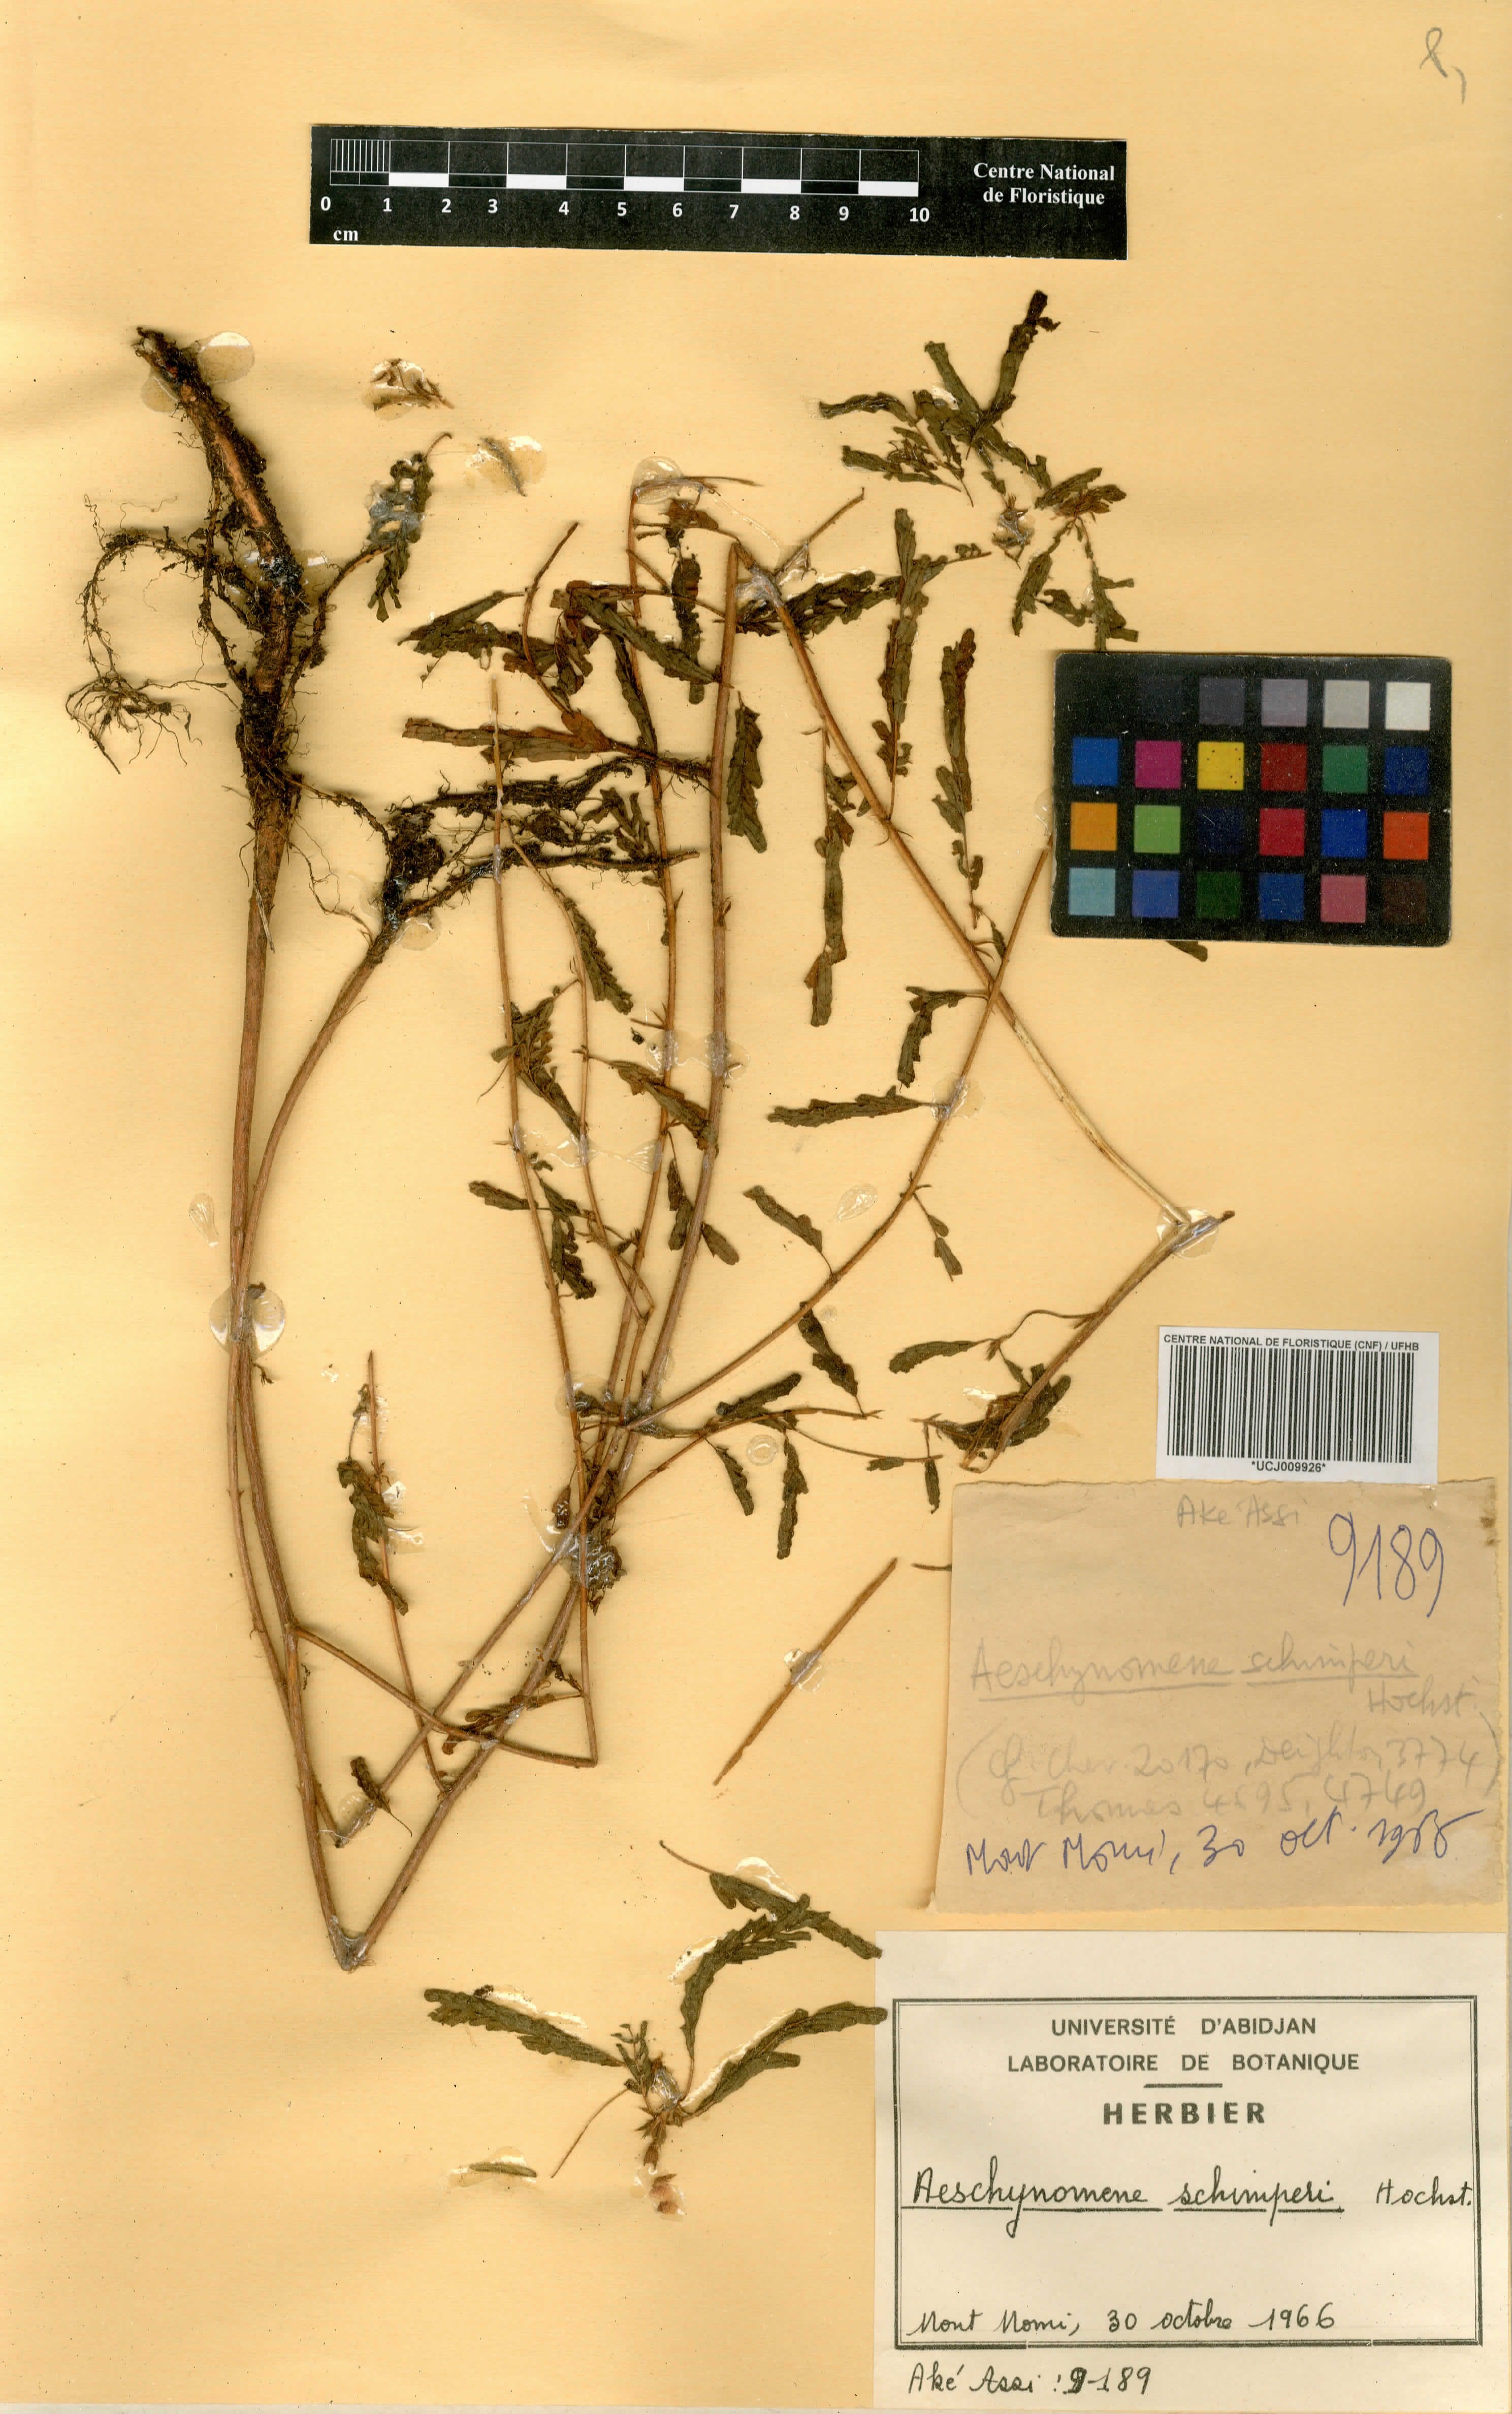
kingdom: Plantae
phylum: Tracheophyta
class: Magnoliopsida
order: Fabales
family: Fabaceae
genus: Aeschynomene
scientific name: Aeschynomene schimperi
